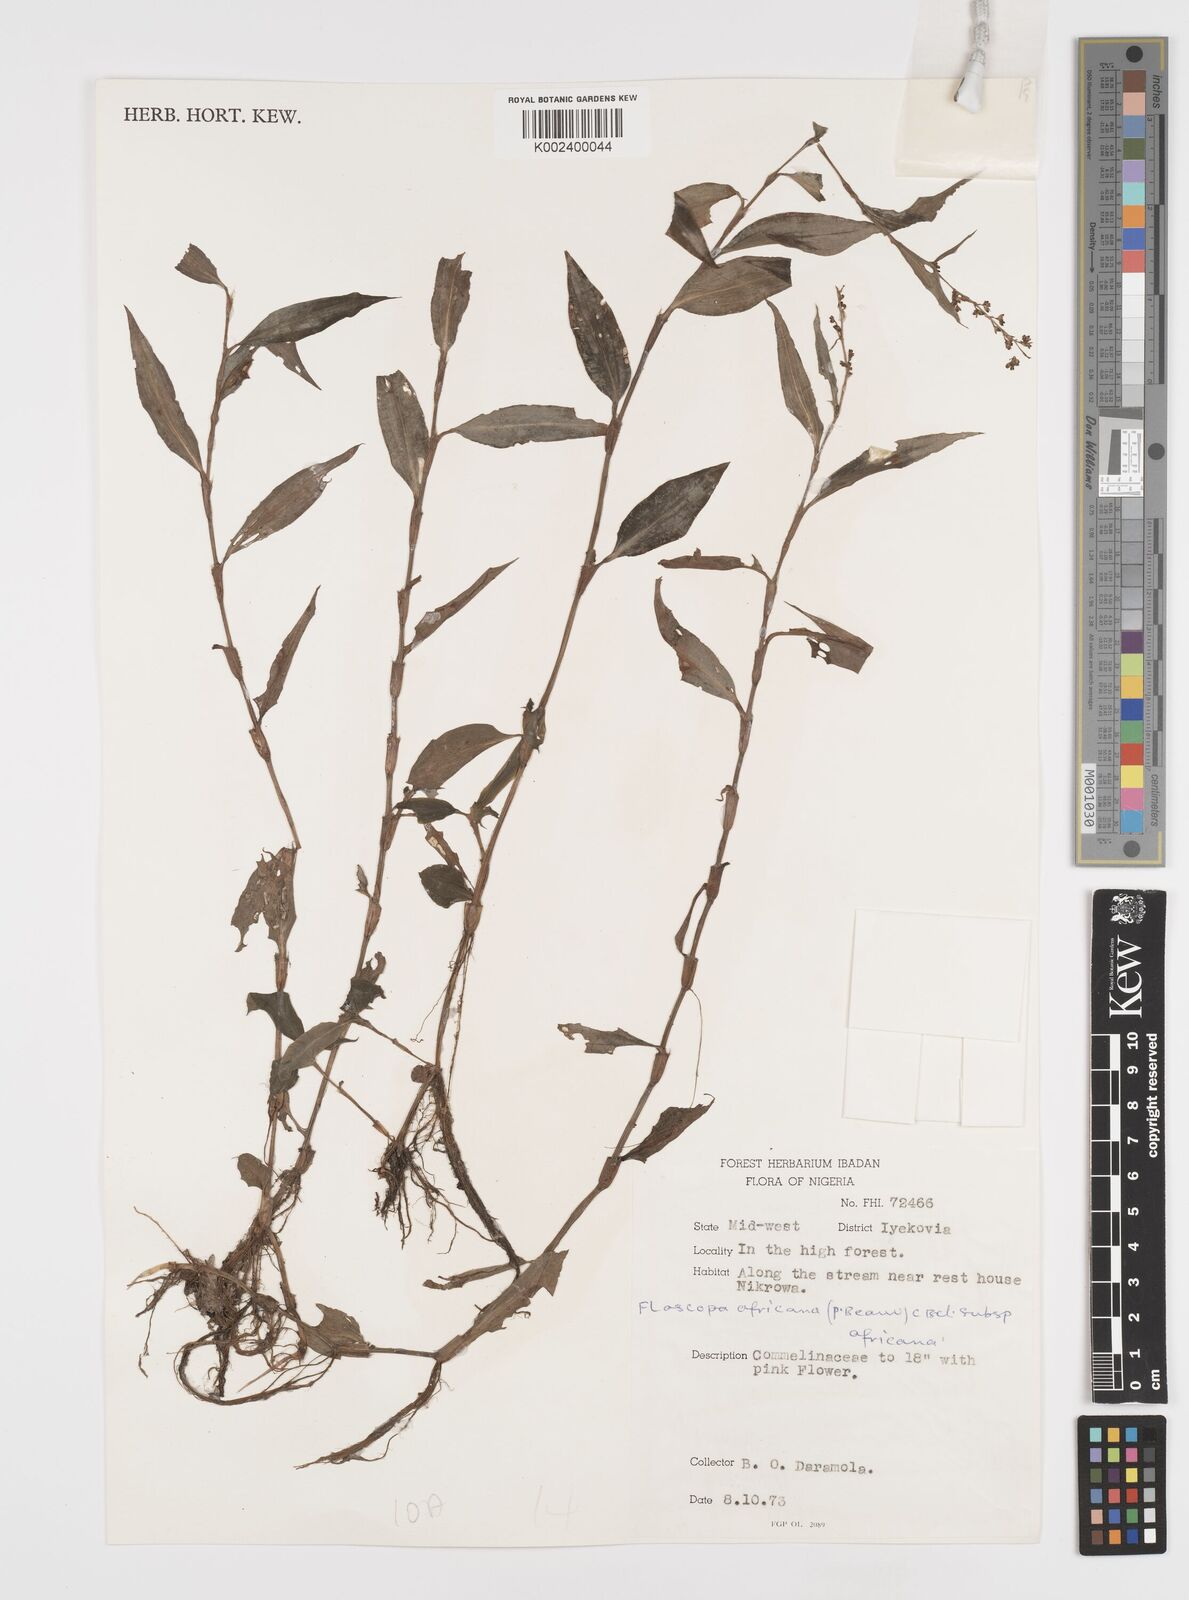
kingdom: Plantae
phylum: Tracheophyta
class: Liliopsida
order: Commelinales
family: Commelinaceae
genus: Floscopa
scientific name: Floscopa africana
